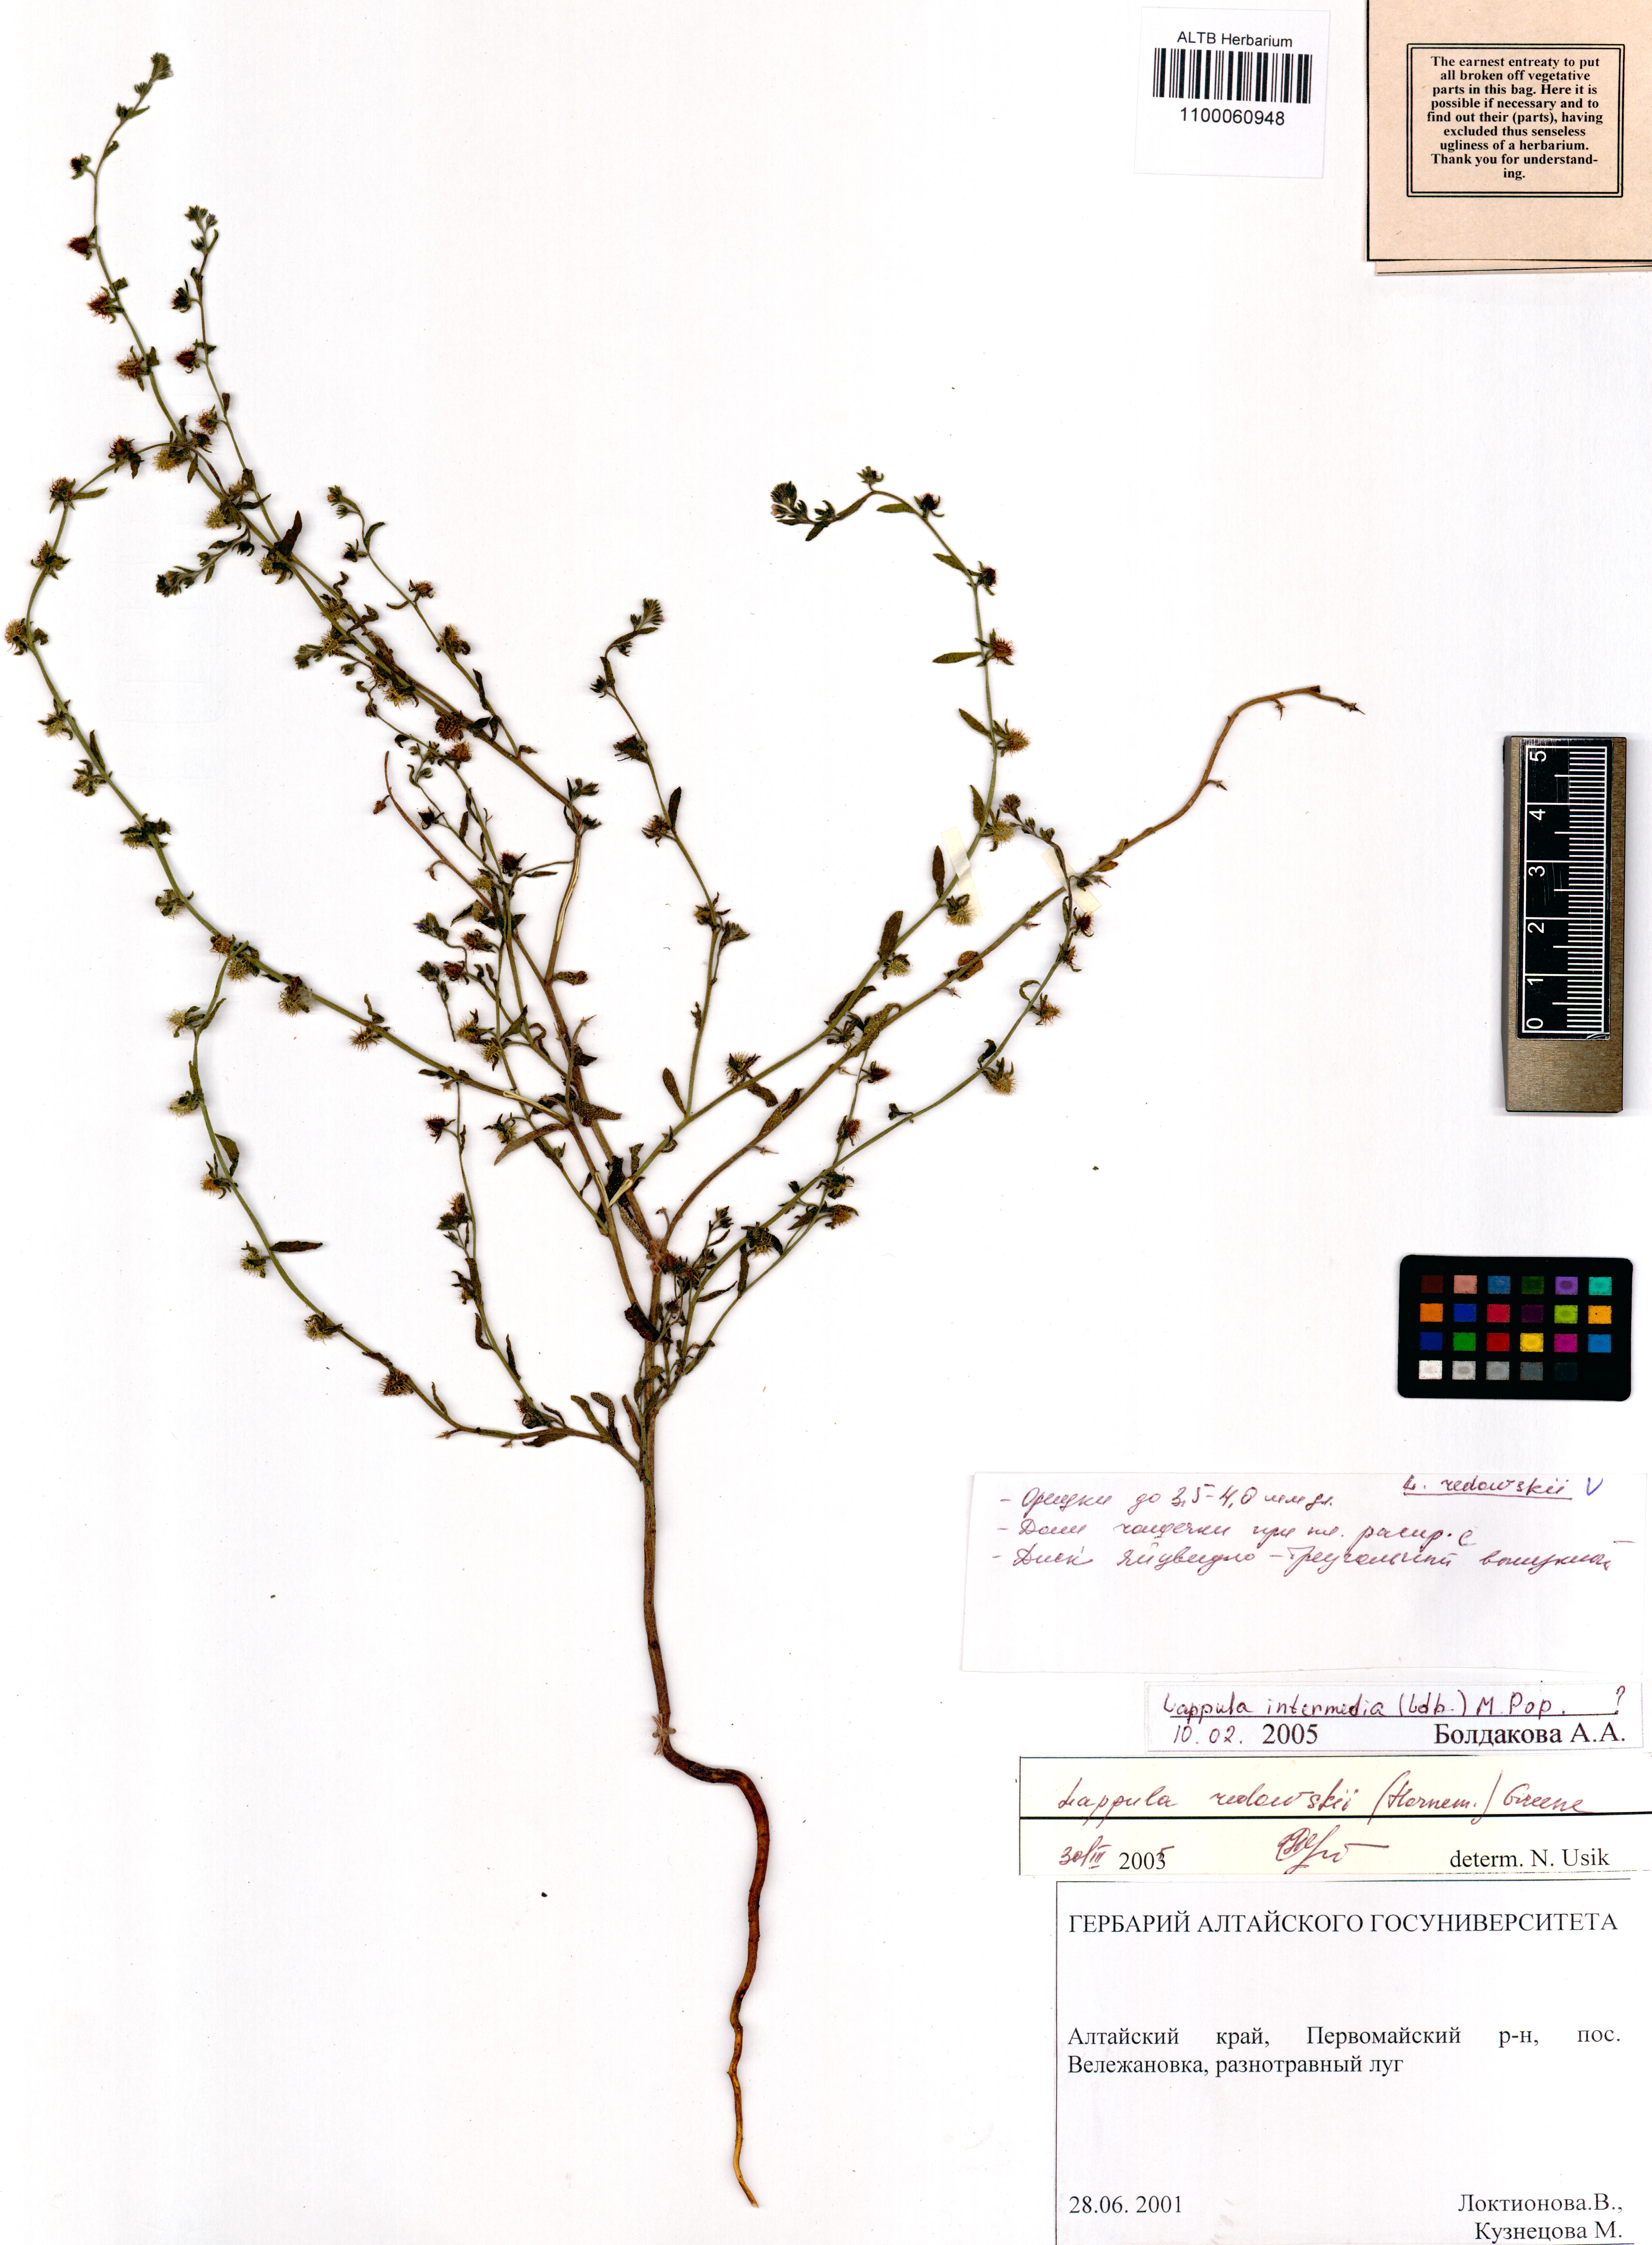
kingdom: Plantae
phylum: Tracheophyta
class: Magnoliopsida
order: Boraginales
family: Boraginaceae
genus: Lappula
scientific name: Lappula redowskii
